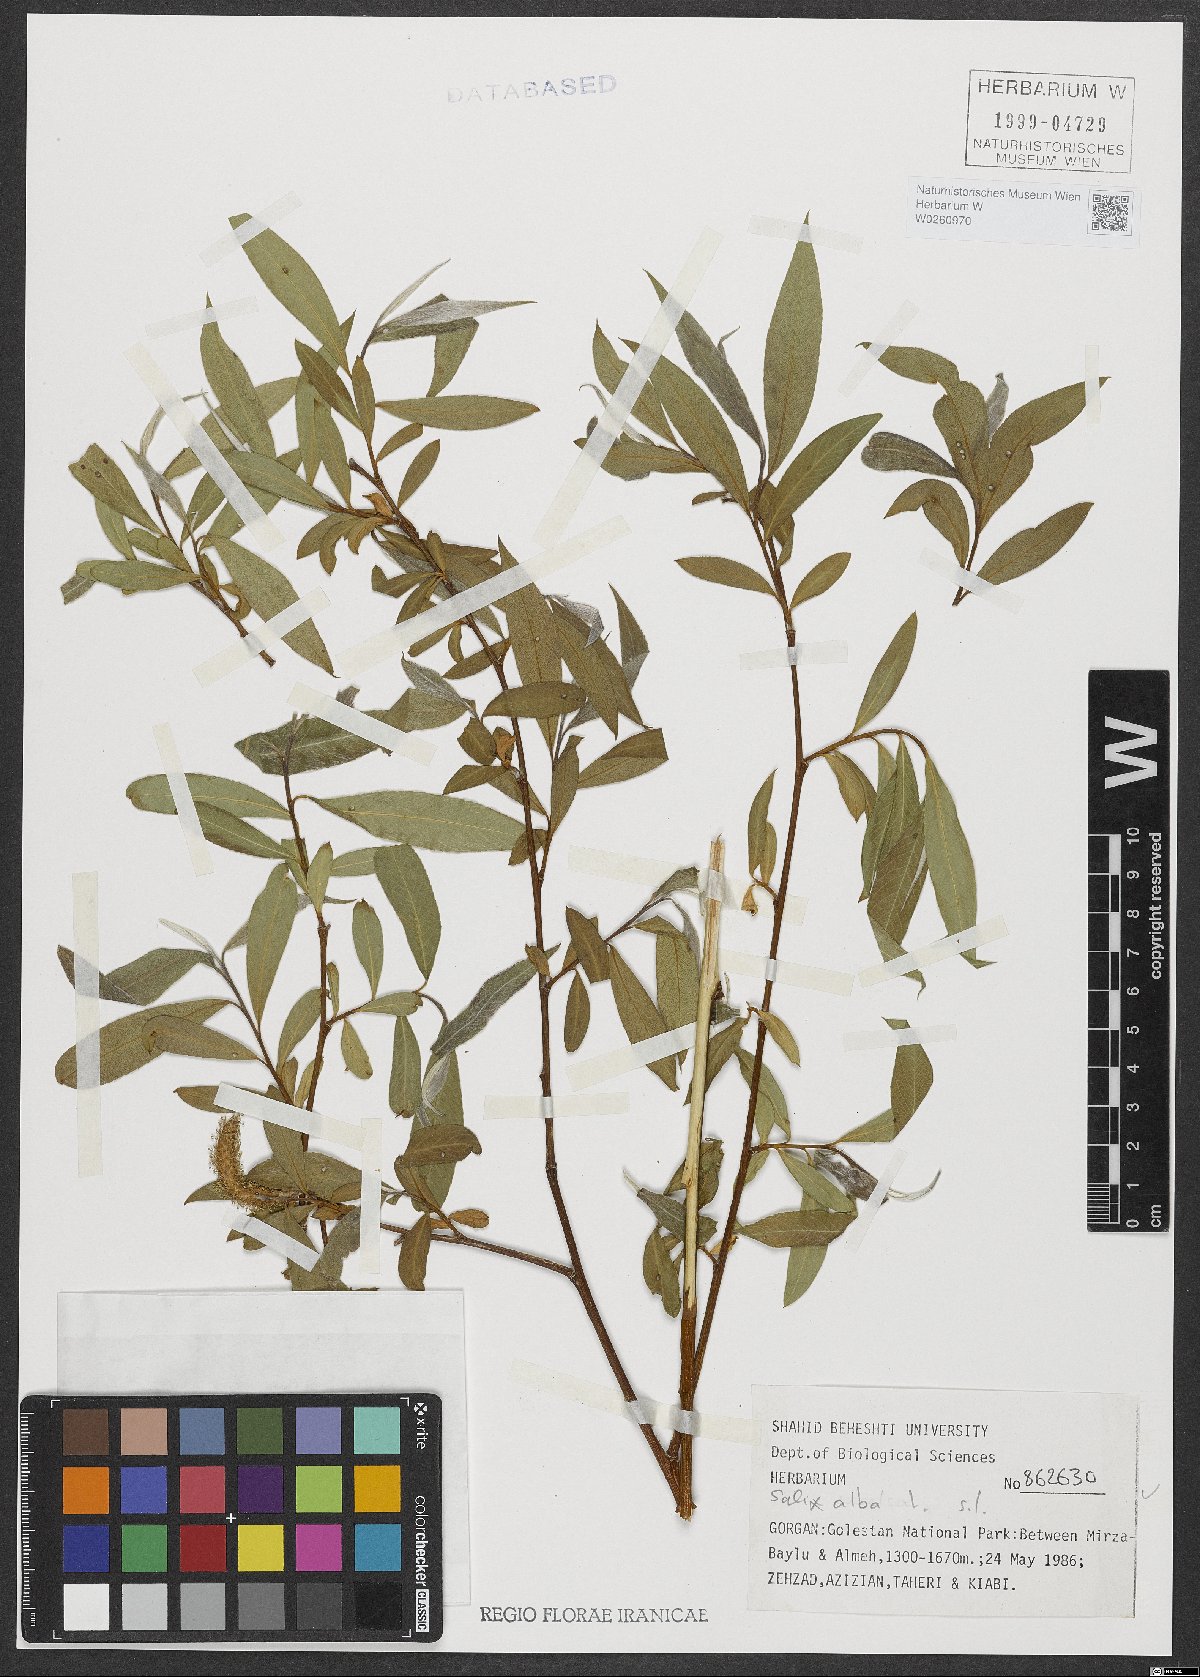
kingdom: Plantae
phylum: Tracheophyta
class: Magnoliopsida
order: Malpighiales
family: Salicaceae
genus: Salix
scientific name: Salix alba
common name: White willow
